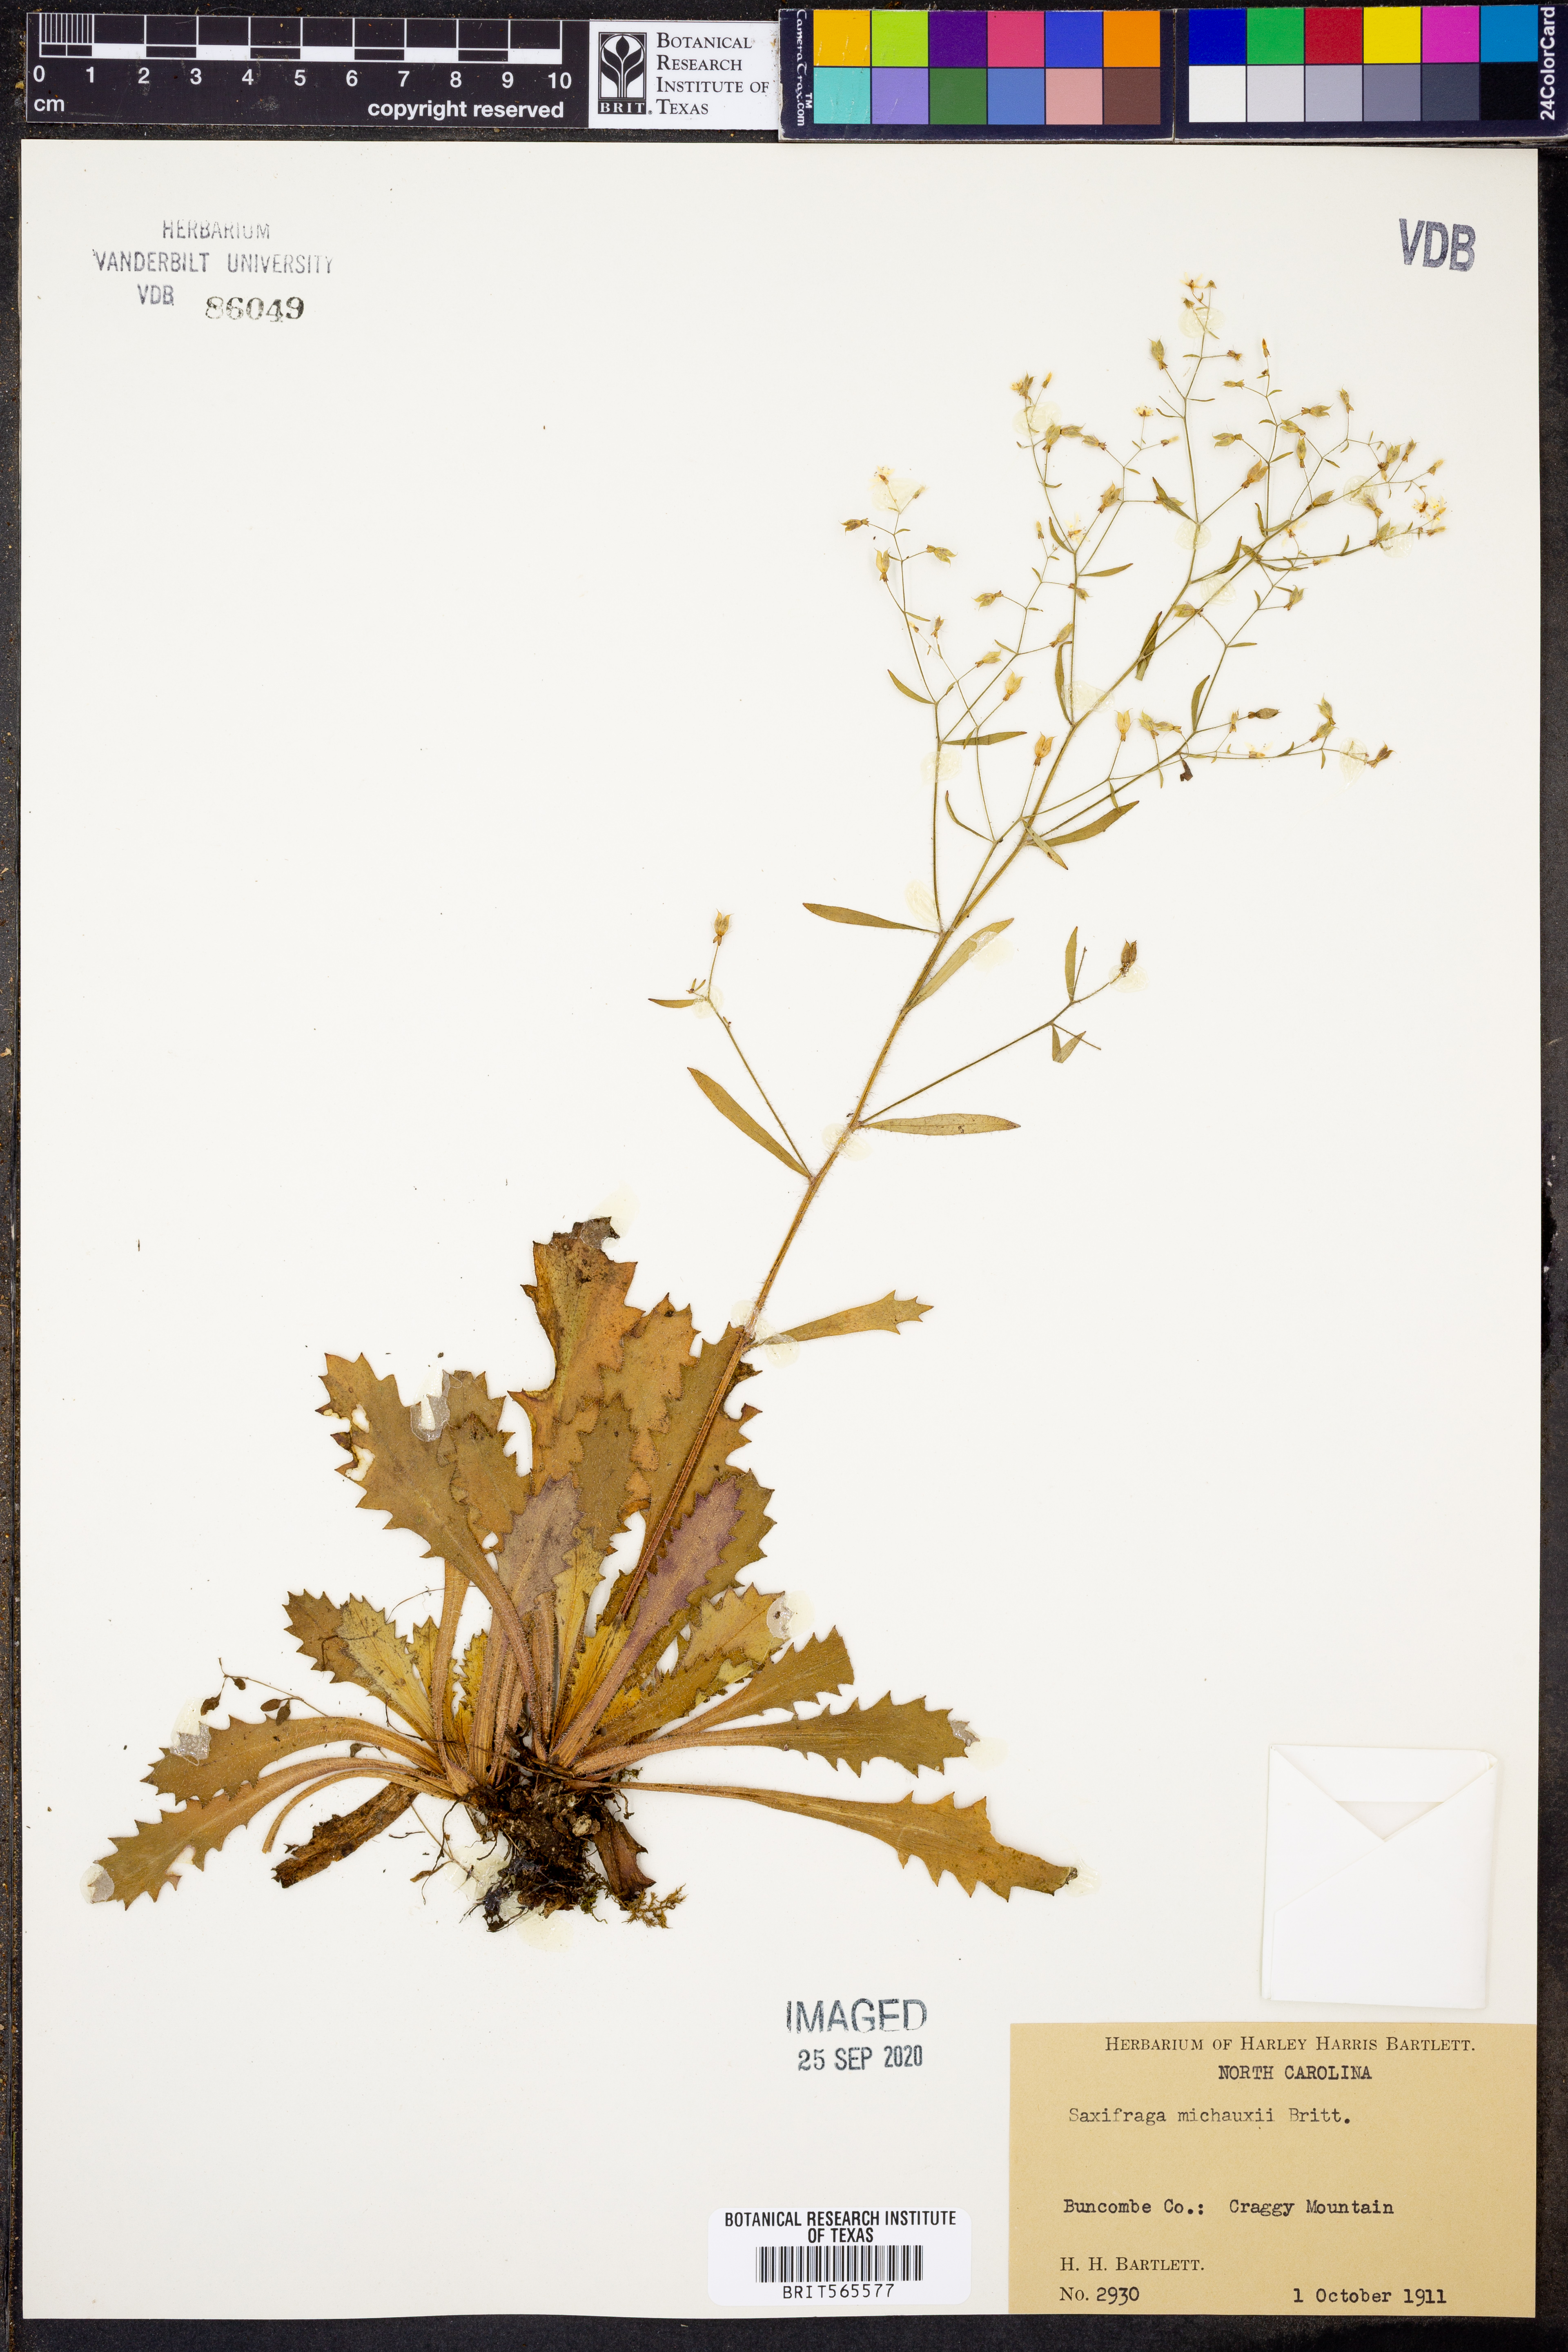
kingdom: Plantae
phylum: Tracheophyta
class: Magnoliopsida
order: Saxifragales
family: Saxifragaceae
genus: Micranthes
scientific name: Micranthes petiolaris
